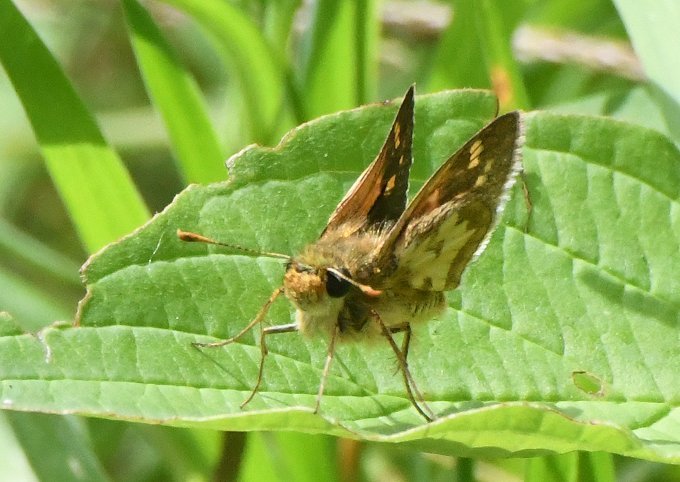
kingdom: Animalia
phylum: Arthropoda
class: Insecta
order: Lepidoptera
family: Hesperiidae
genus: Polites
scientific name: Polites coras
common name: Peck's Skipper
